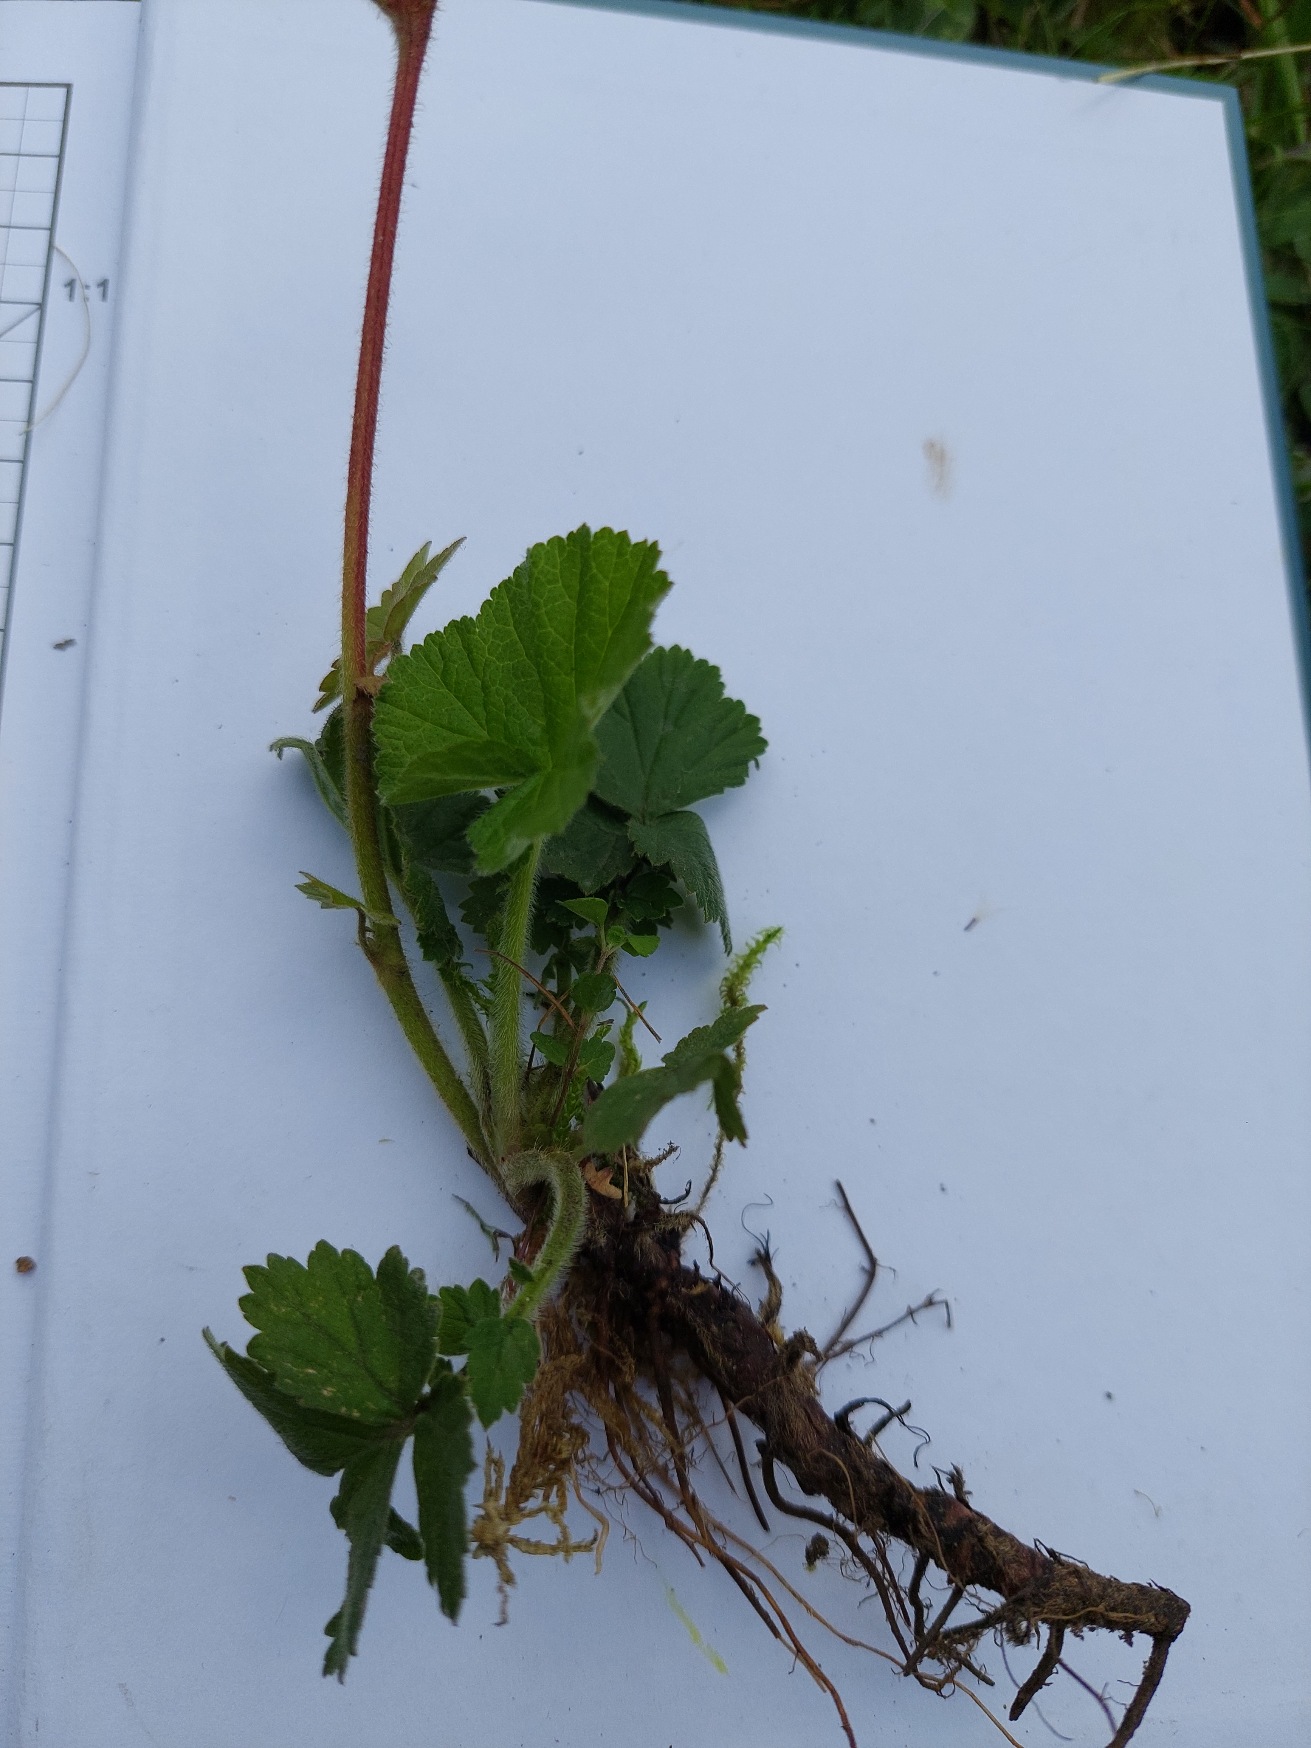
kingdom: Plantae
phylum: Tracheophyta
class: Magnoliopsida
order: Rosales
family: Rosaceae
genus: Geum
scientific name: Geum rivale
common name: Eng-nellikerod
